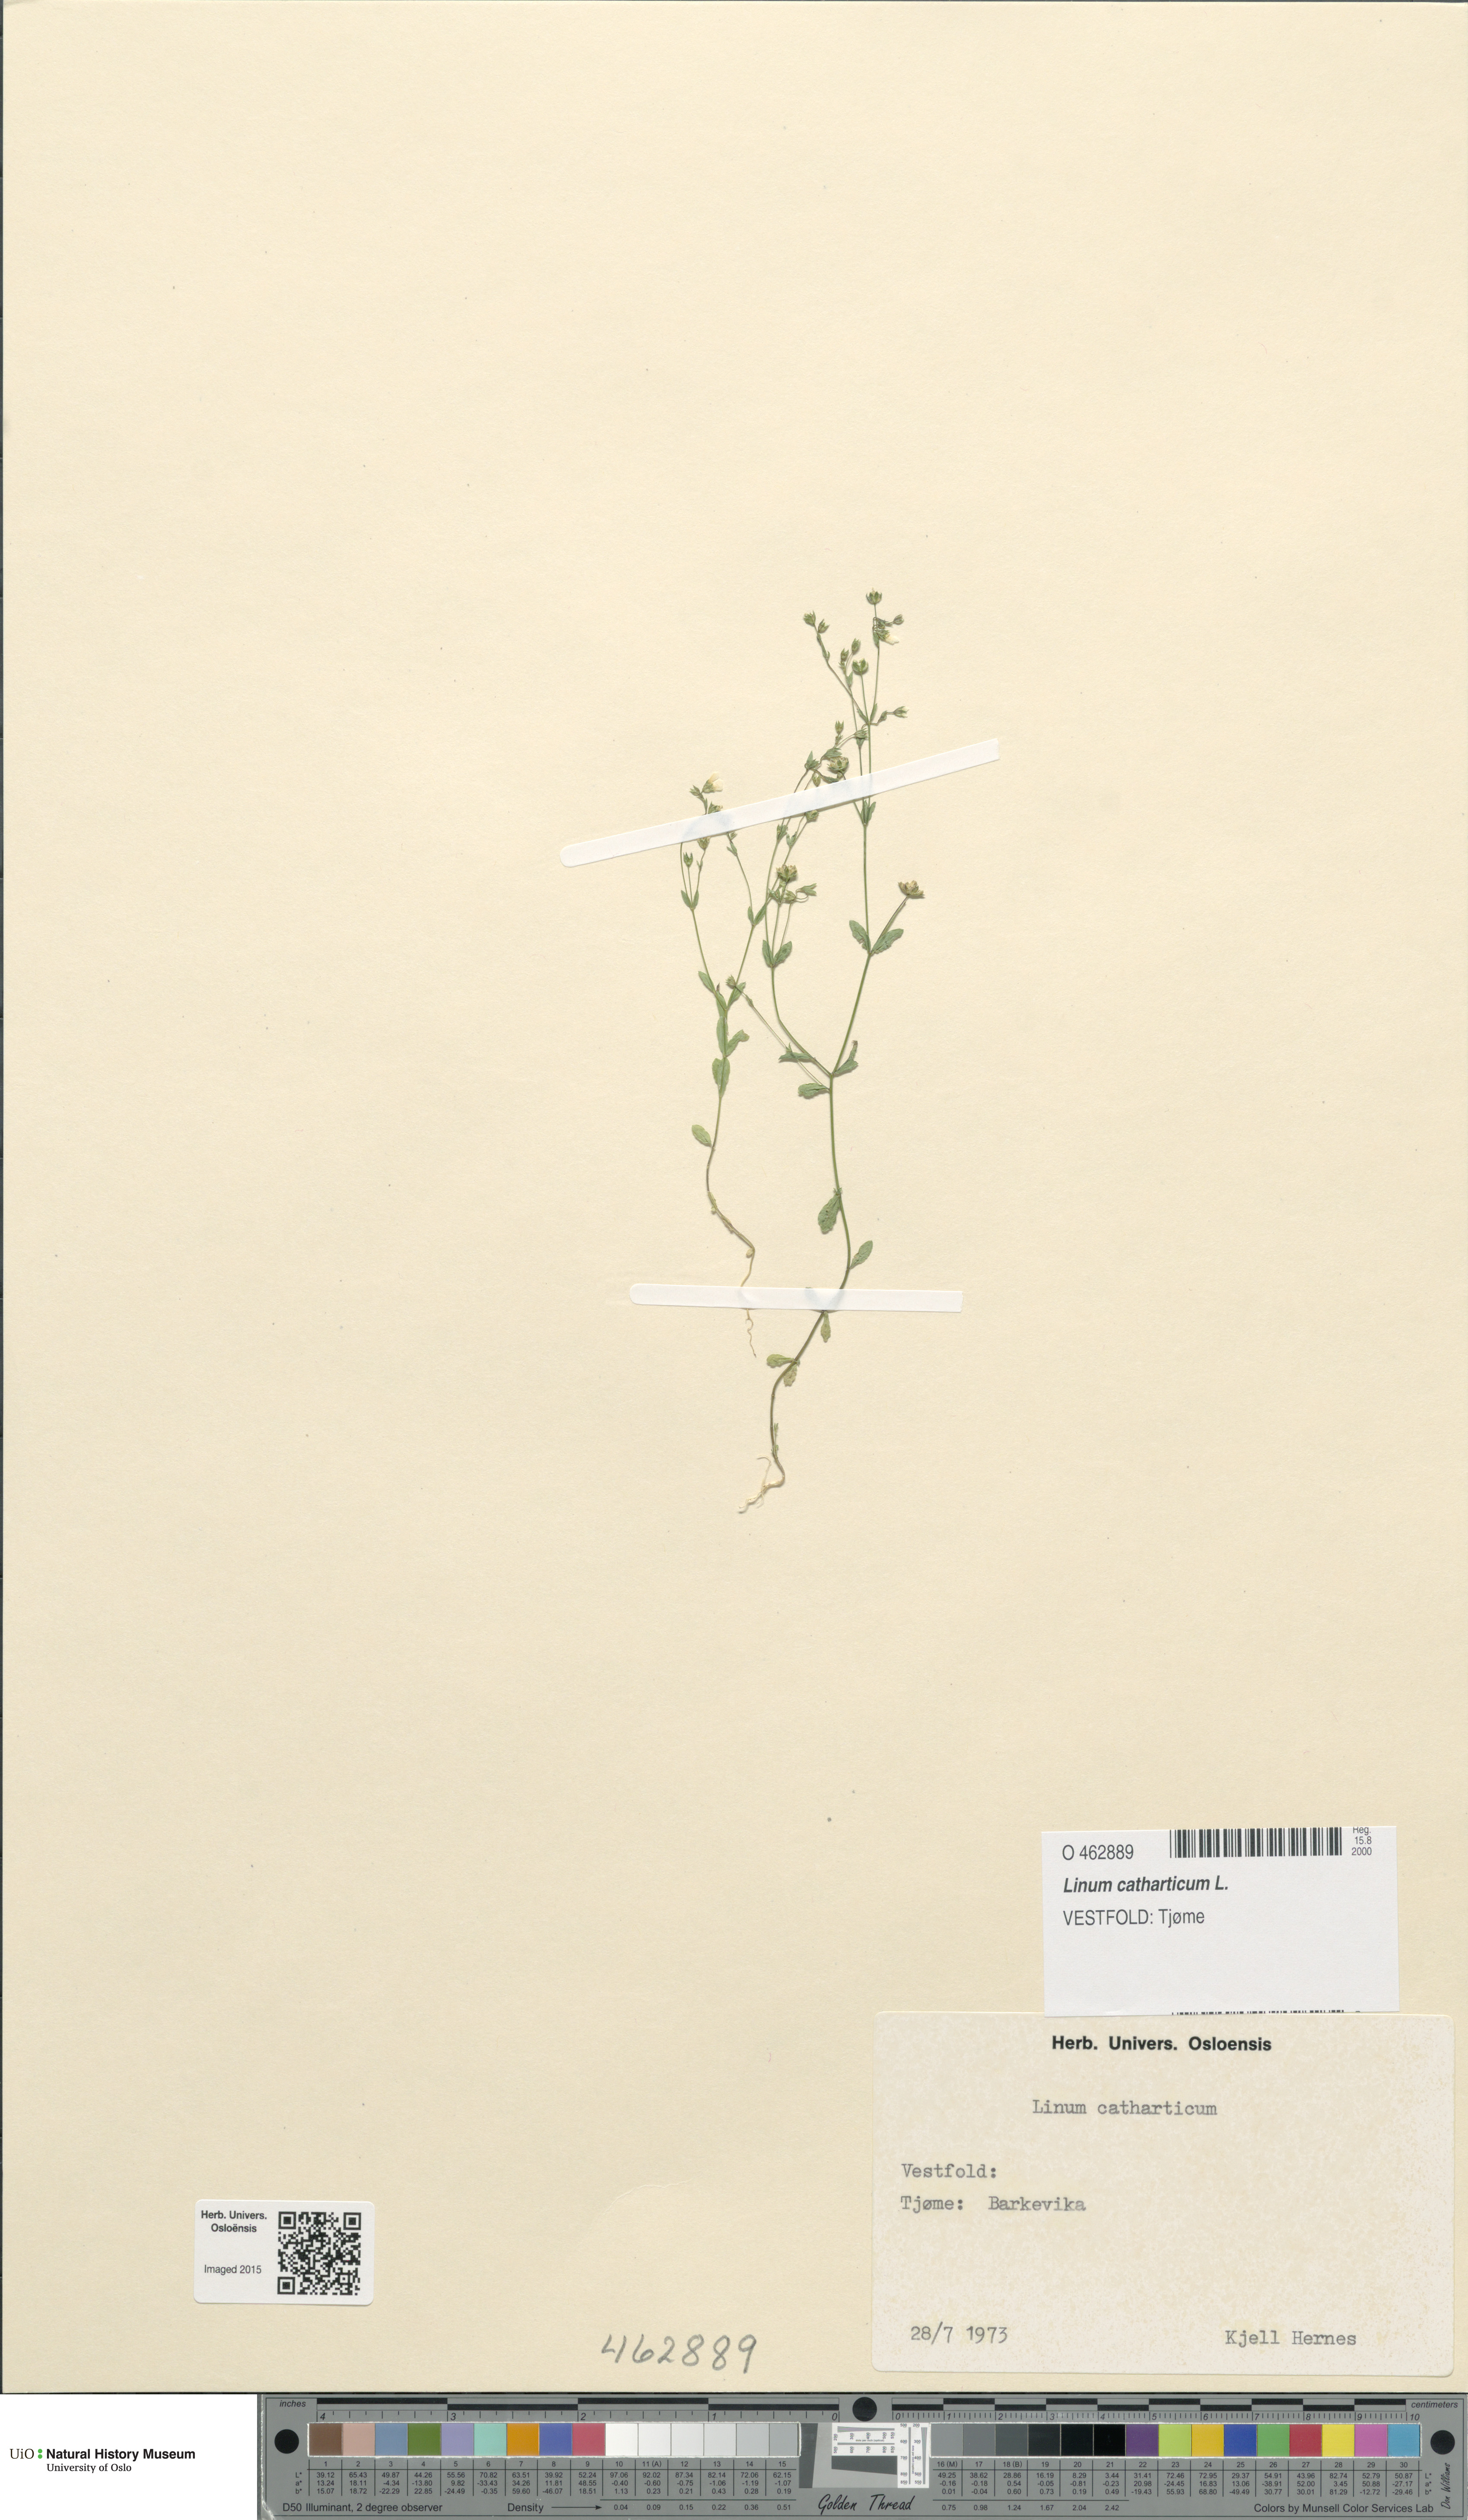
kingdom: Plantae
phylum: Tracheophyta
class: Magnoliopsida
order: Malpighiales
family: Linaceae
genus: Linum
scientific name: Linum catharticum
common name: Fairy flax
